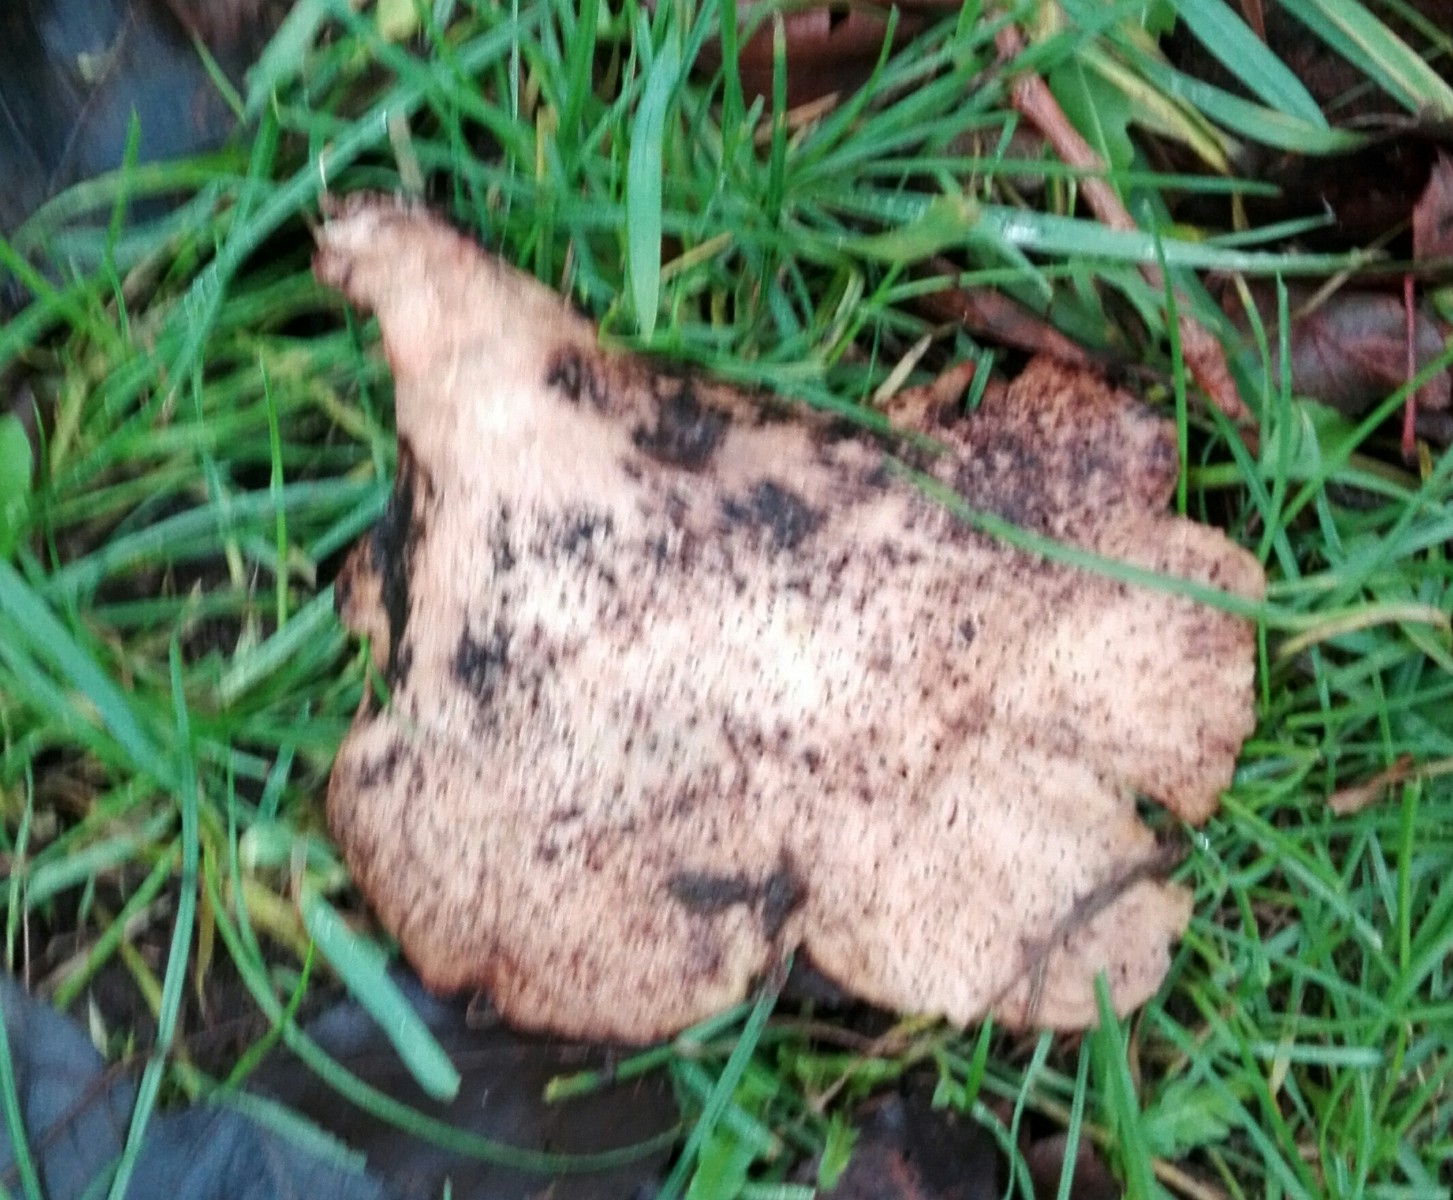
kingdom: Fungi
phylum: Basidiomycota
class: Agaricomycetes
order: Polyporales
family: Polyporaceae
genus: Cerioporus
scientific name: Cerioporus squamosus
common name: skællet stilkporesvamp
